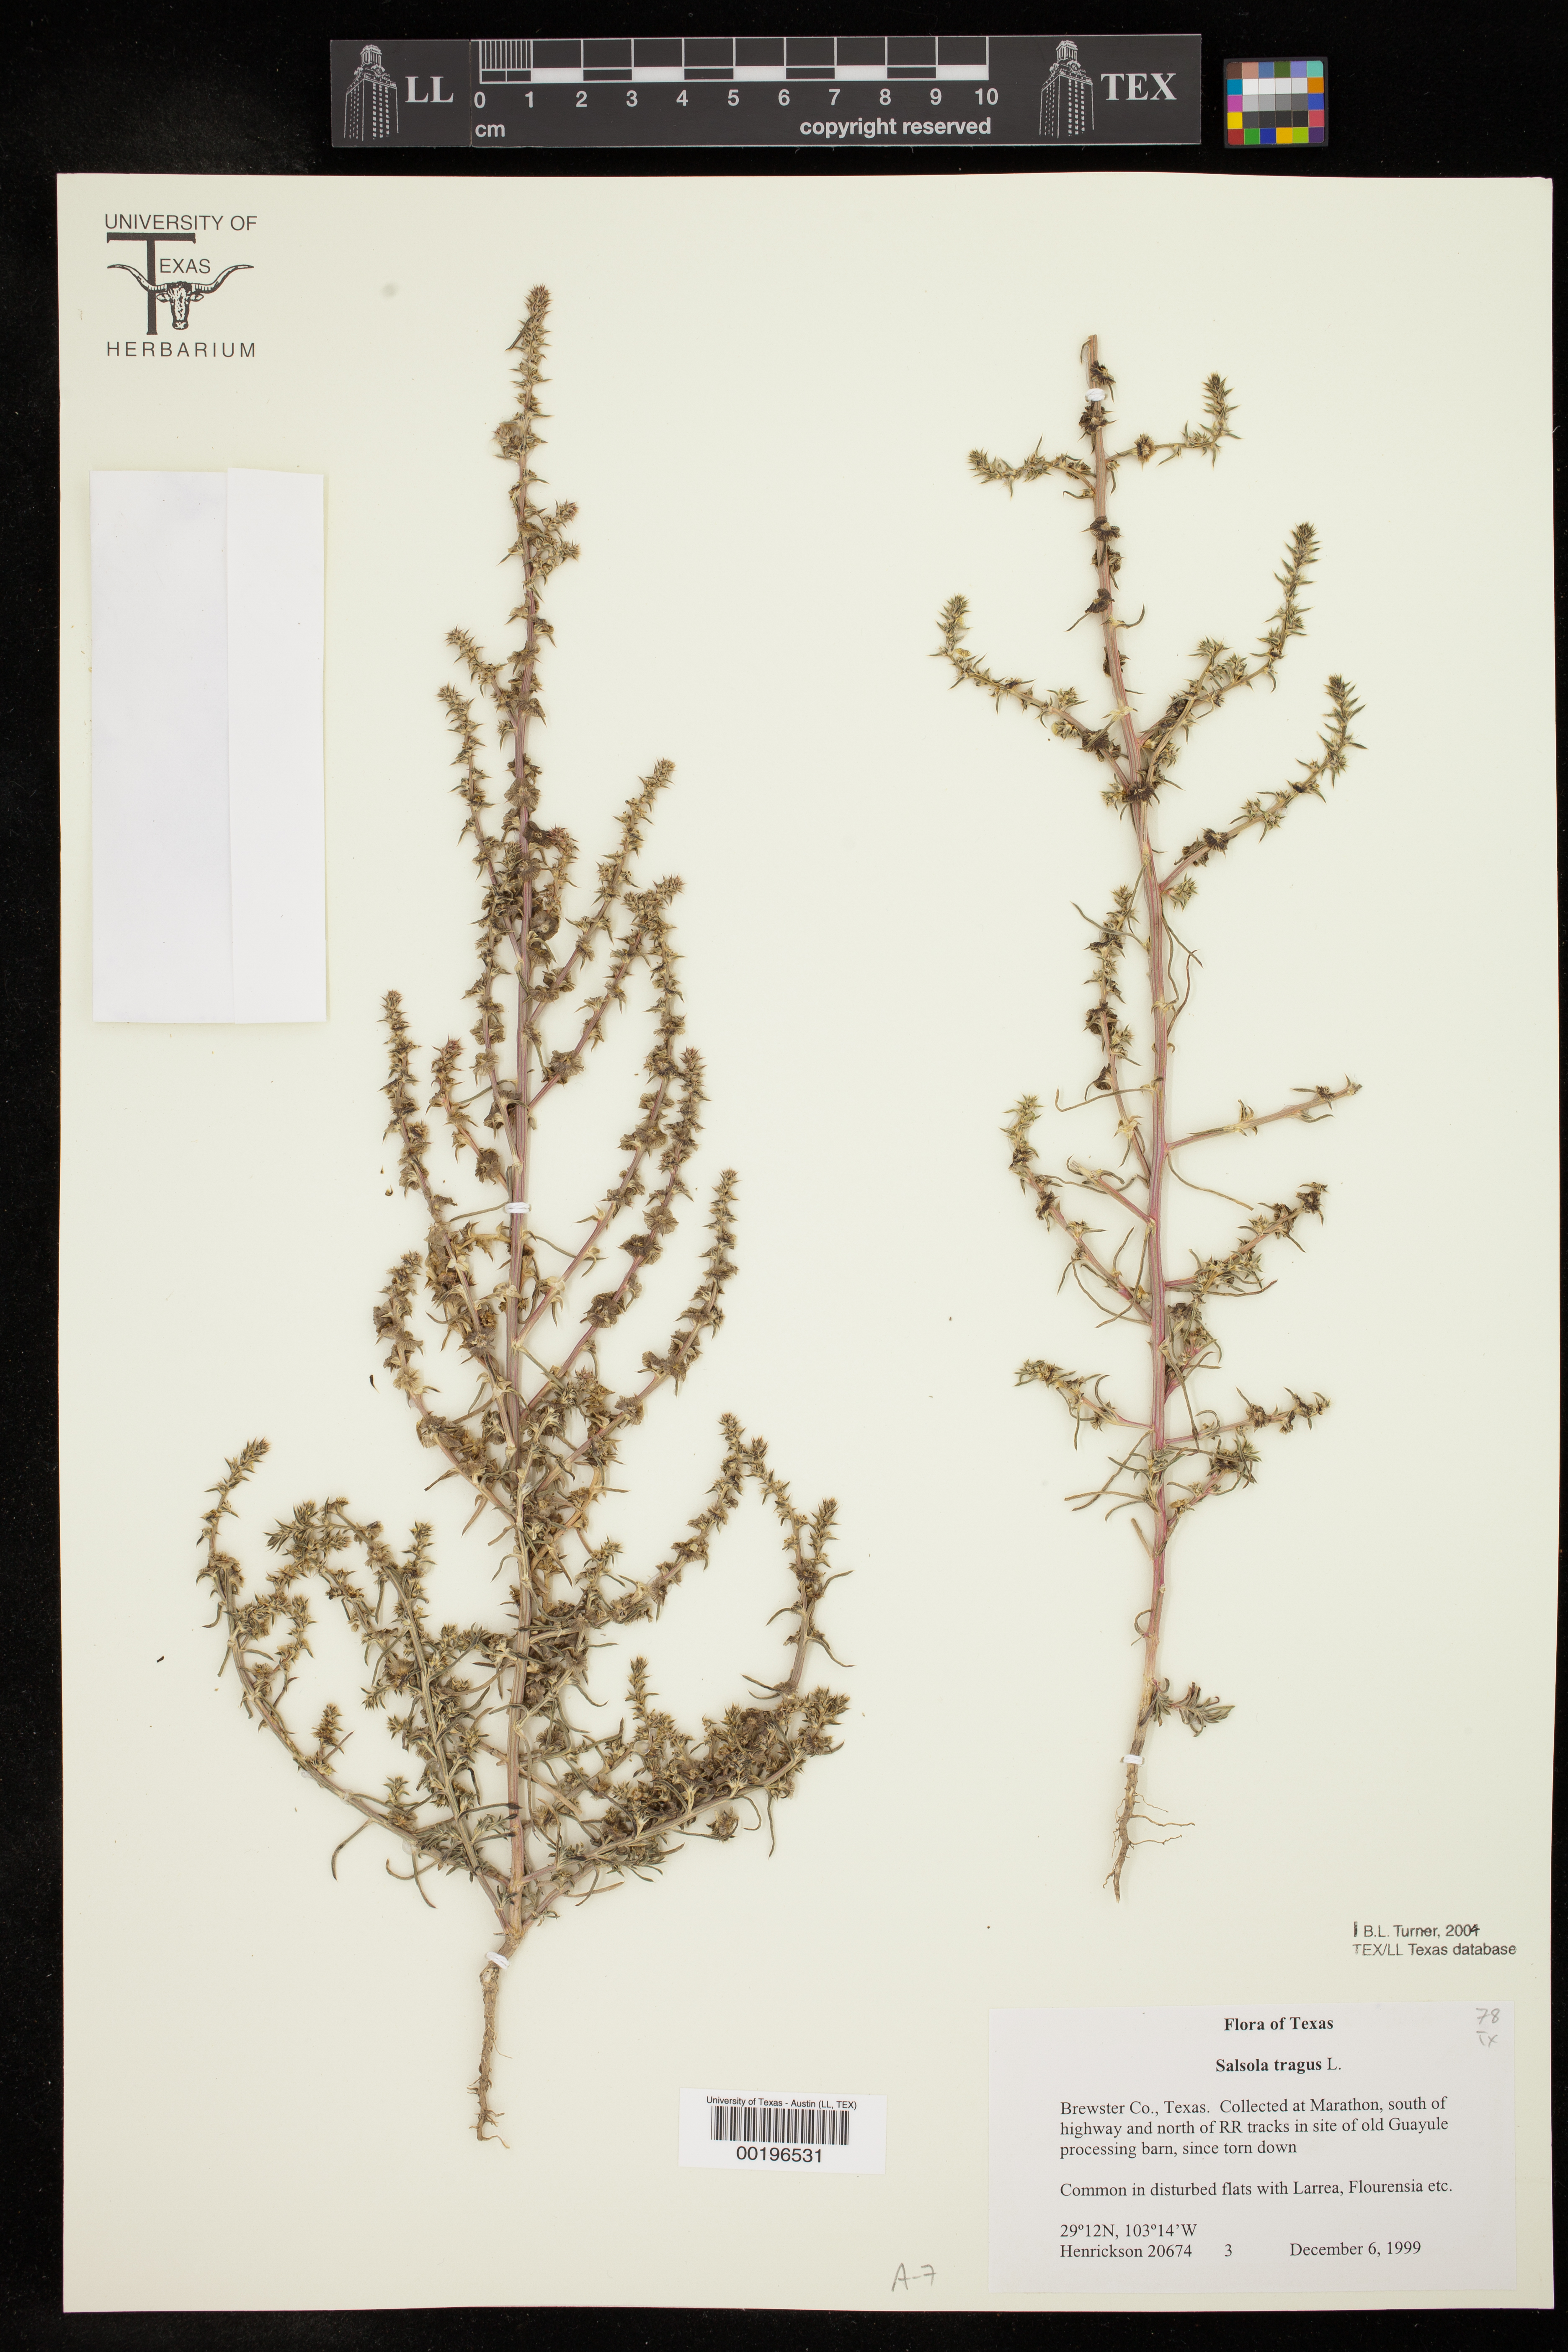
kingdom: Plantae
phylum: Tracheophyta
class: Magnoliopsida
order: Caryophyllales
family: Amaranthaceae
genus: Salsola
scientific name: Salsola tragus
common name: Prickly russian thistle
